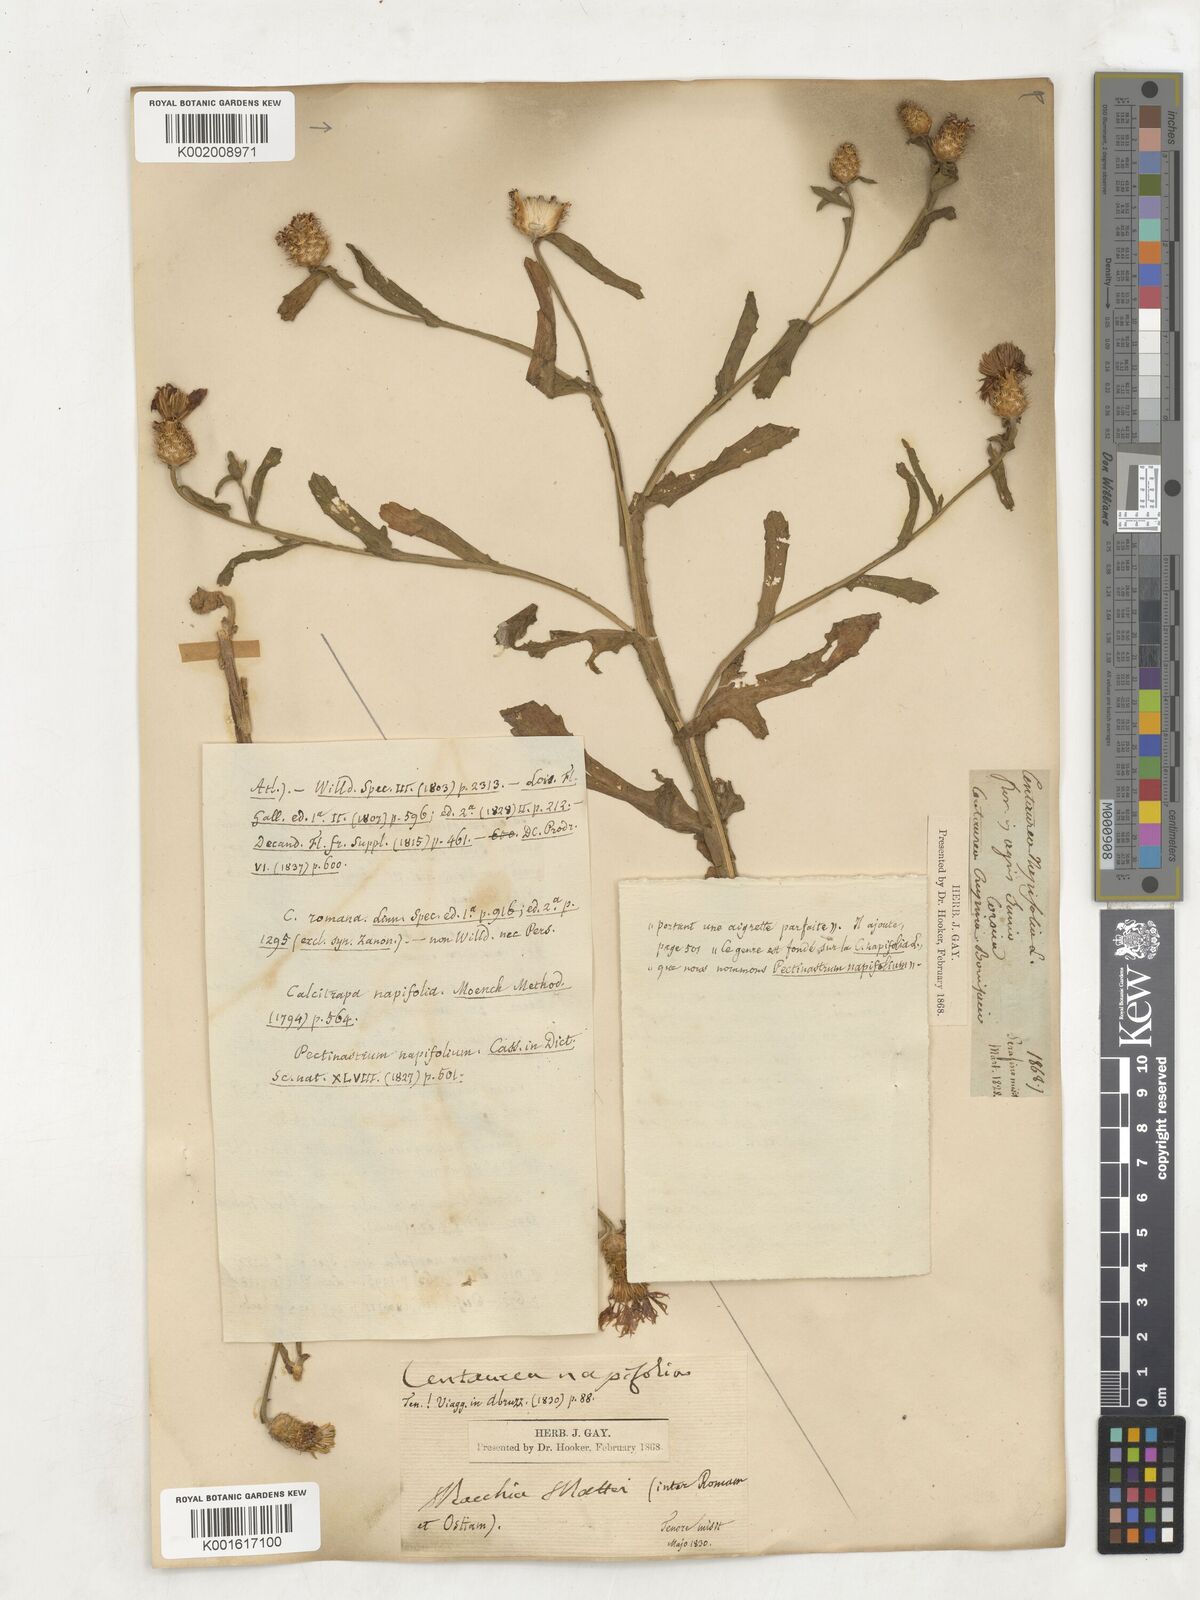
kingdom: Plantae
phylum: Tracheophyta
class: Magnoliopsida
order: Asterales
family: Asteraceae
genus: Centaurea
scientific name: Centaurea napifolia
